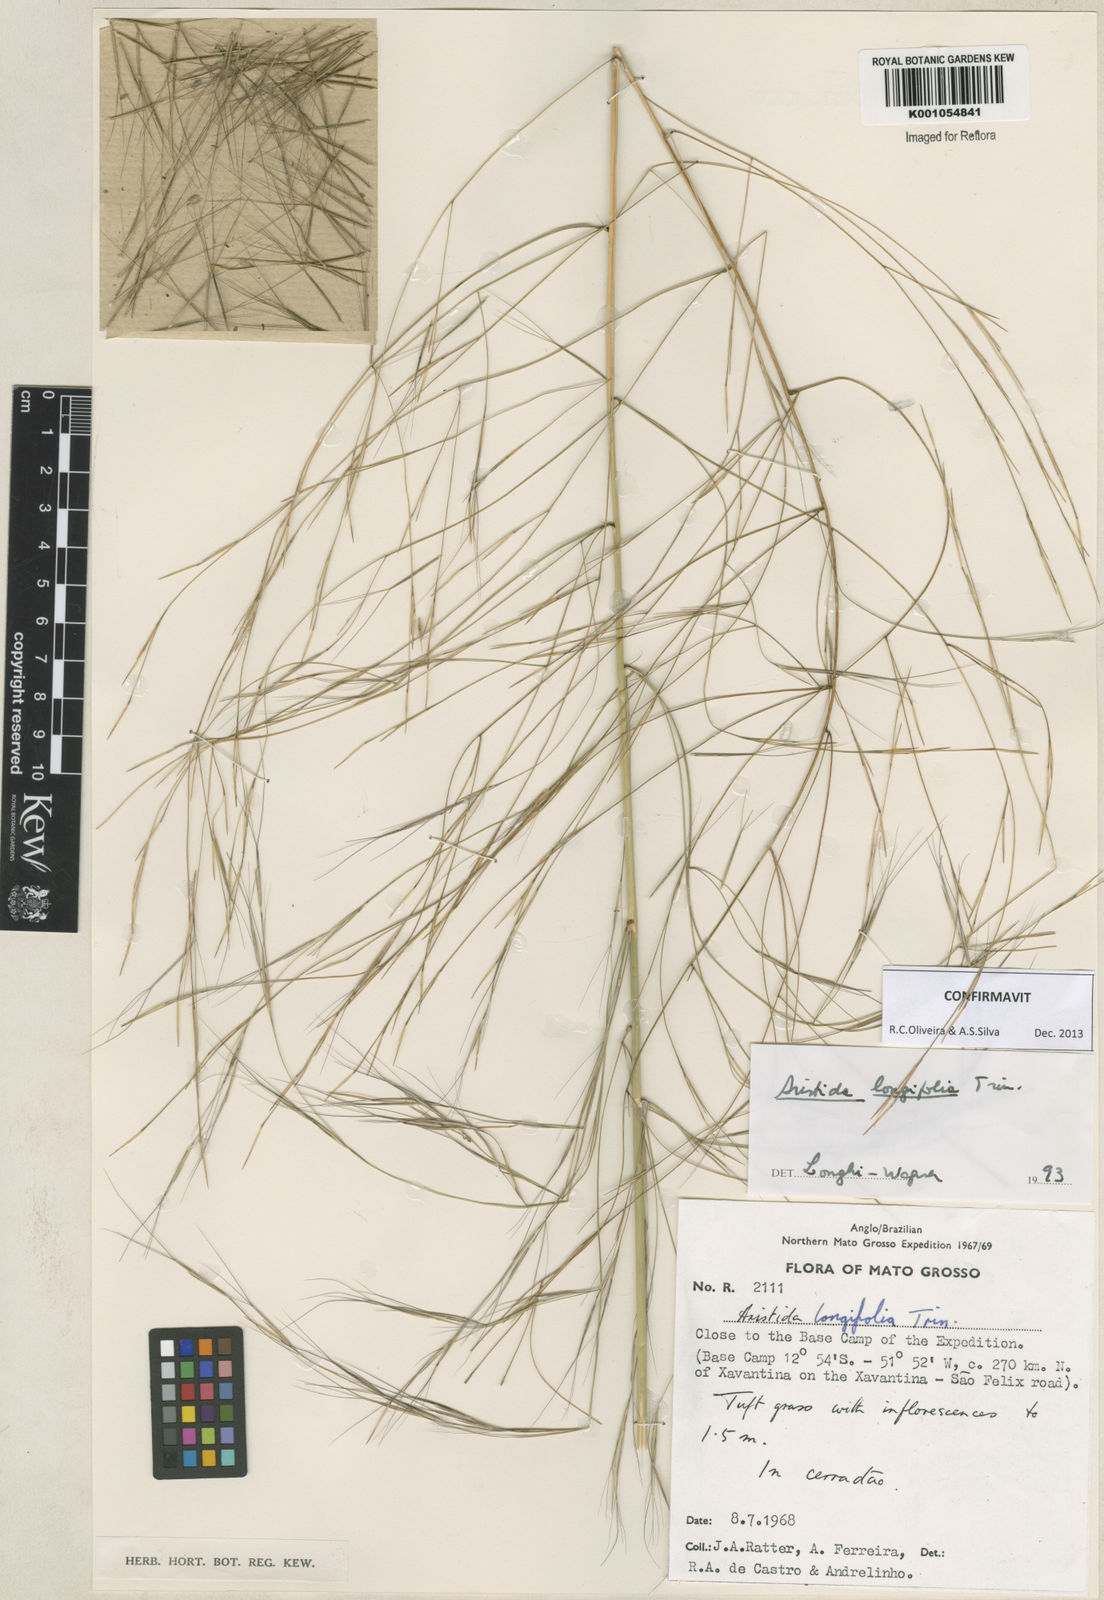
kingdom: Plantae
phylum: Tracheophyta
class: Liliopsida
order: Poales
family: Poaceae
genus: Aristida
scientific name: Aristida longifolia
